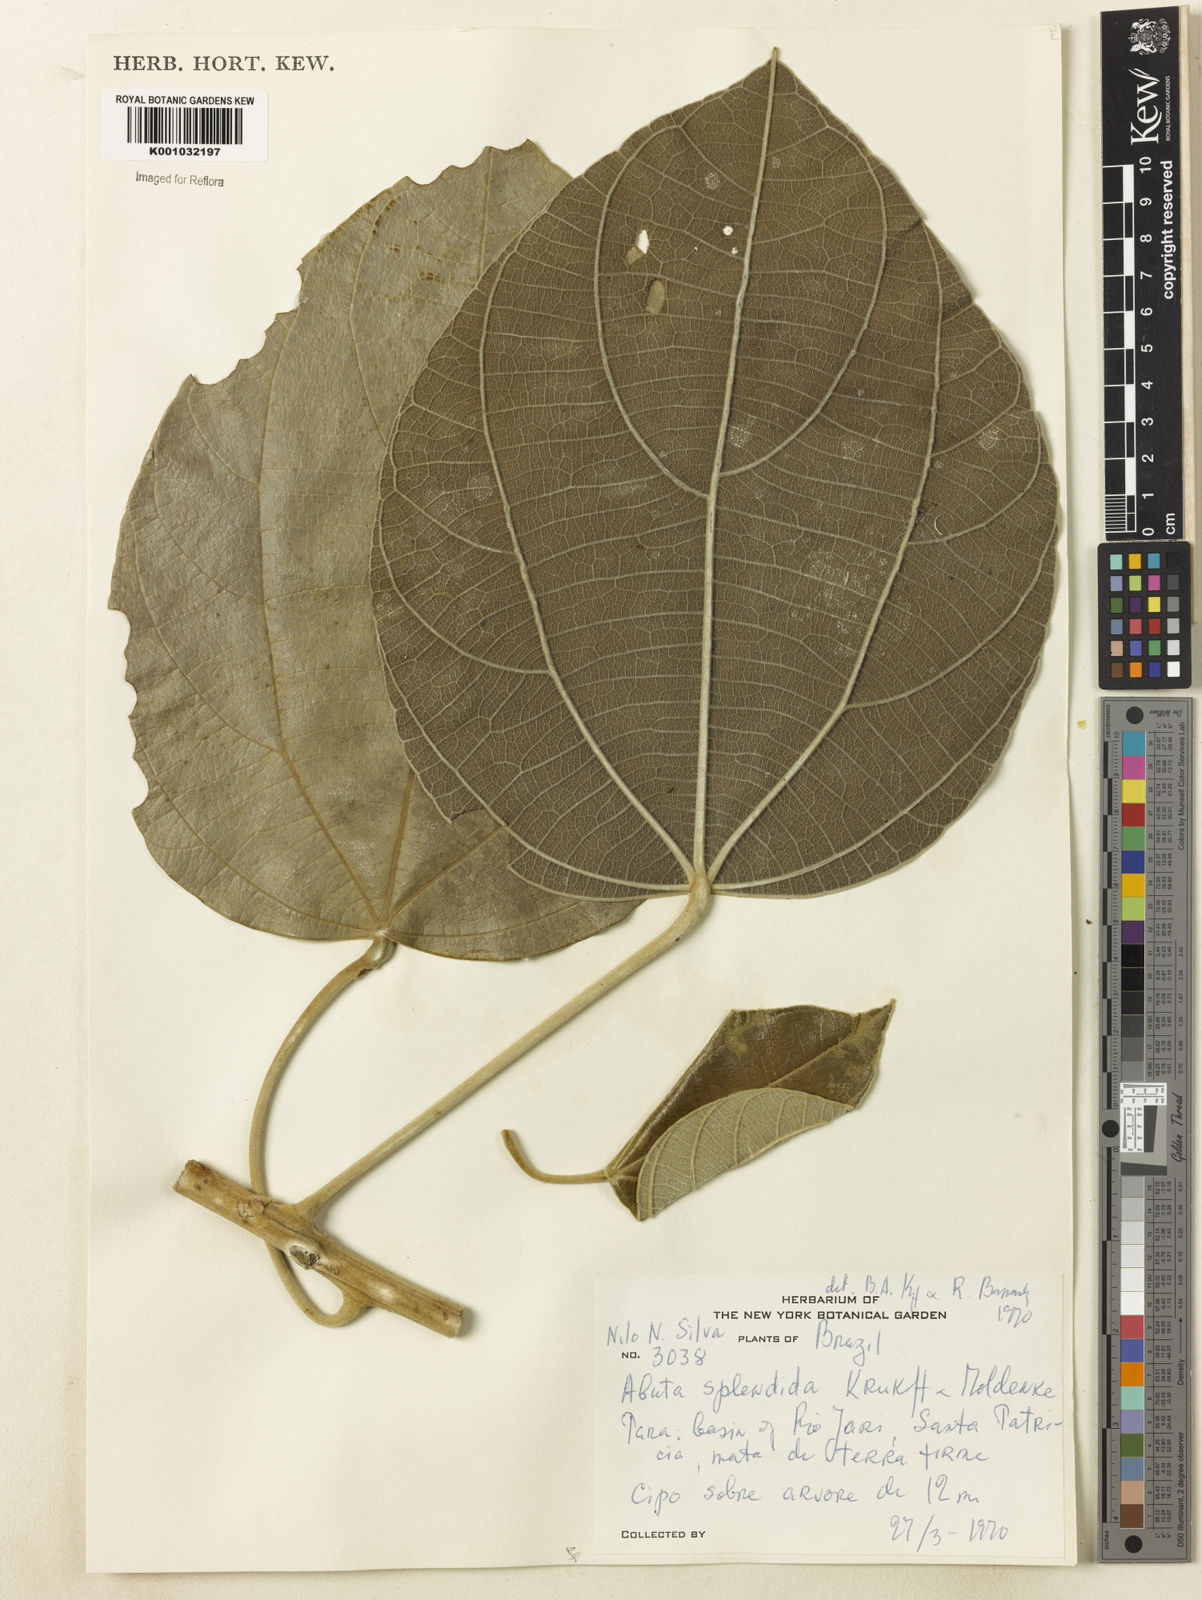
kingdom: Plantae
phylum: Tracheophyta
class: Magnoliopsida
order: Ranunculales
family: Menispermaceae
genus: Abuta
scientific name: Abuta
